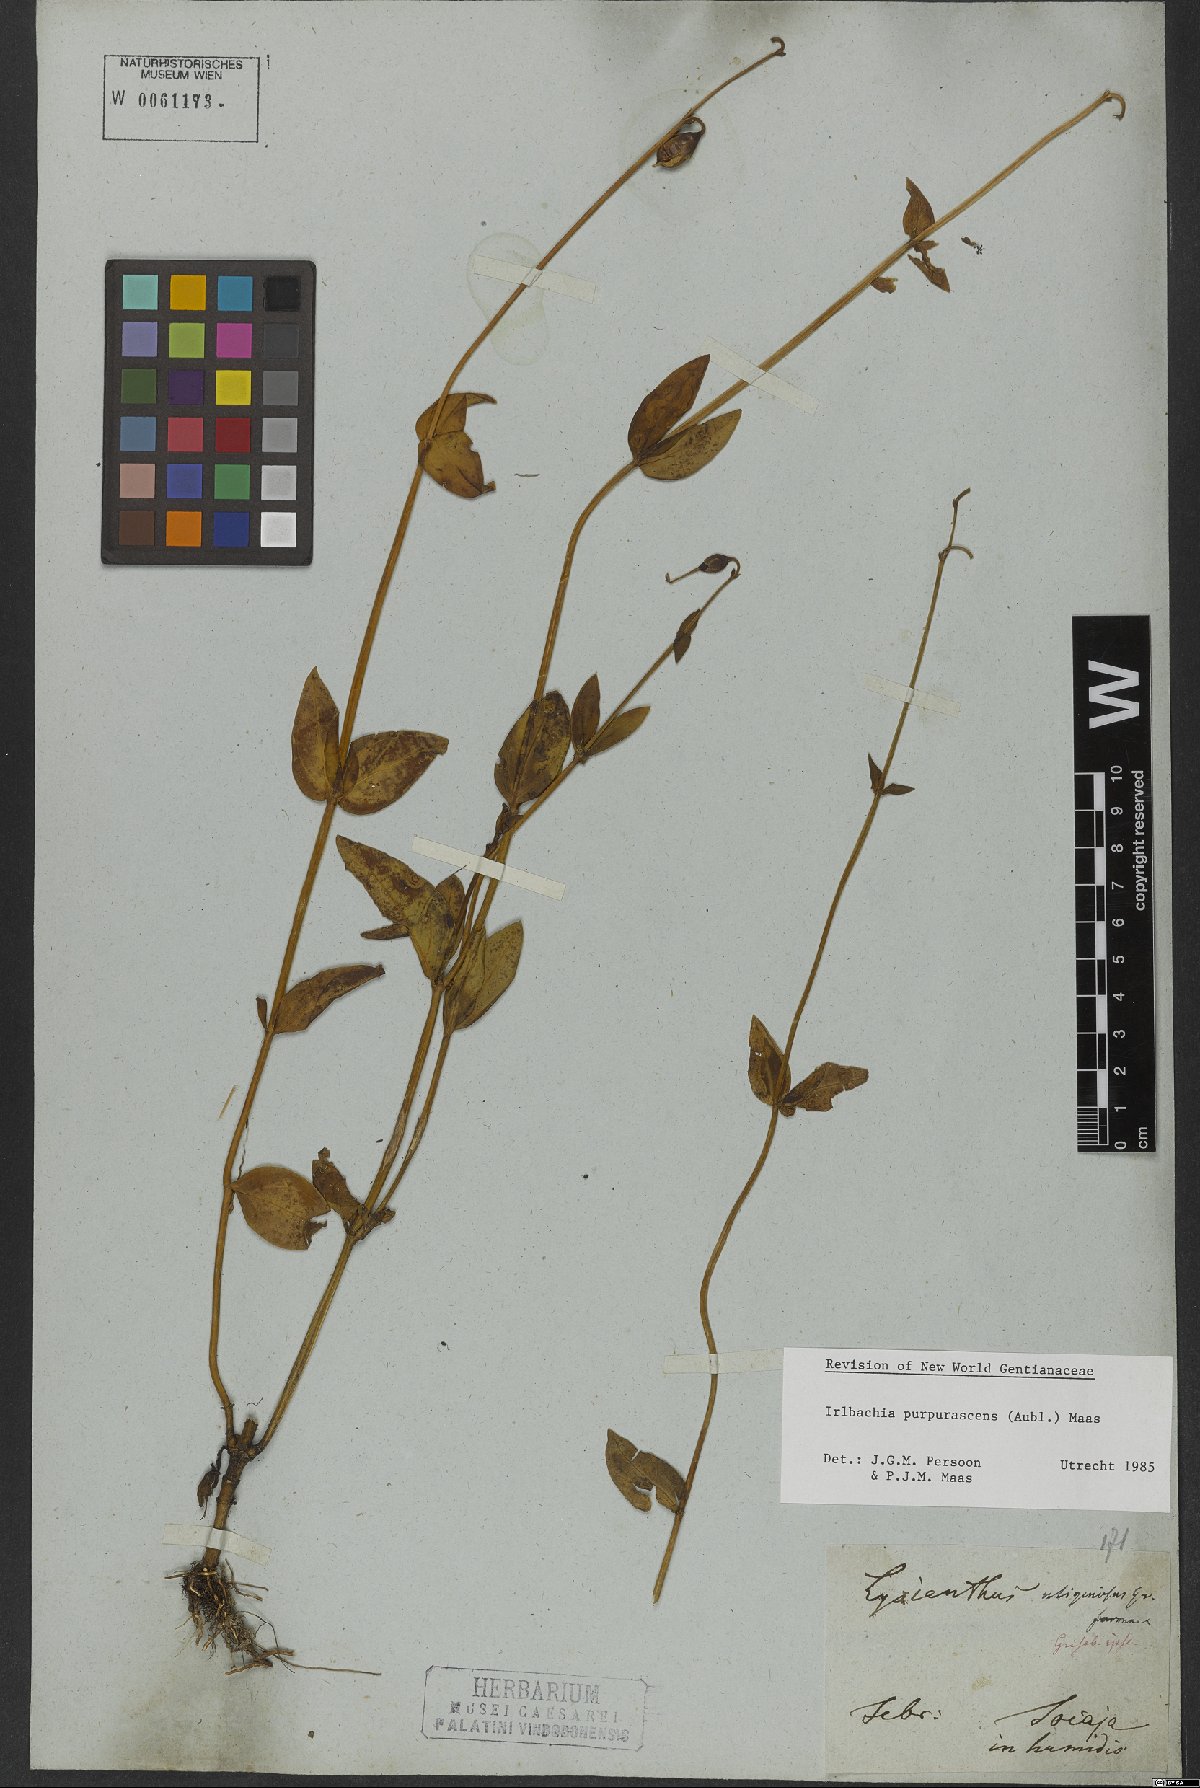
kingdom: Plantae
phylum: Tracheophyta
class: Magnoliopsida
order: Gentianales
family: Gentianaceae
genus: Chelonanthus
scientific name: Chelonanthus purpurascens
